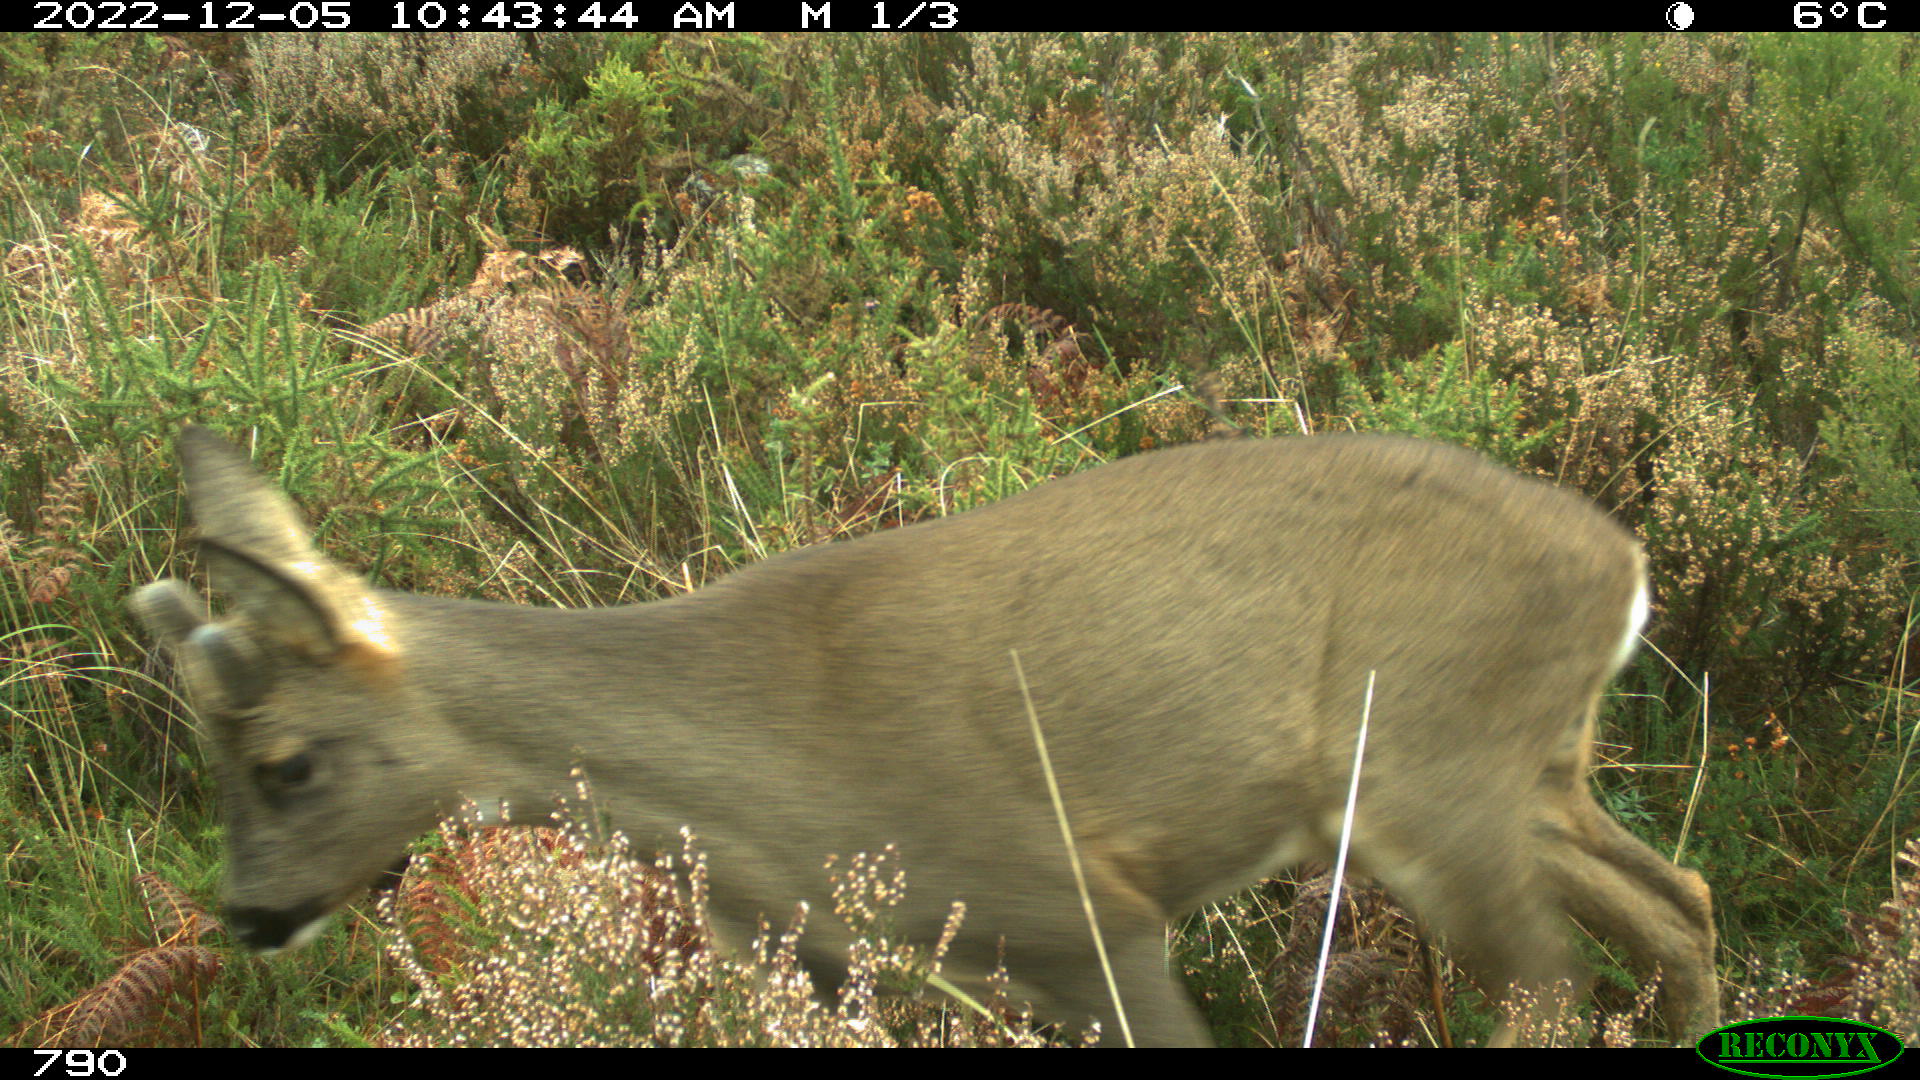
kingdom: Animalia
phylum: Chordata
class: Mammalia
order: Artiodactyla
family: Cervidae
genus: Capreolus
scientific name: Capreolus capreolus
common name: Western roe deer
